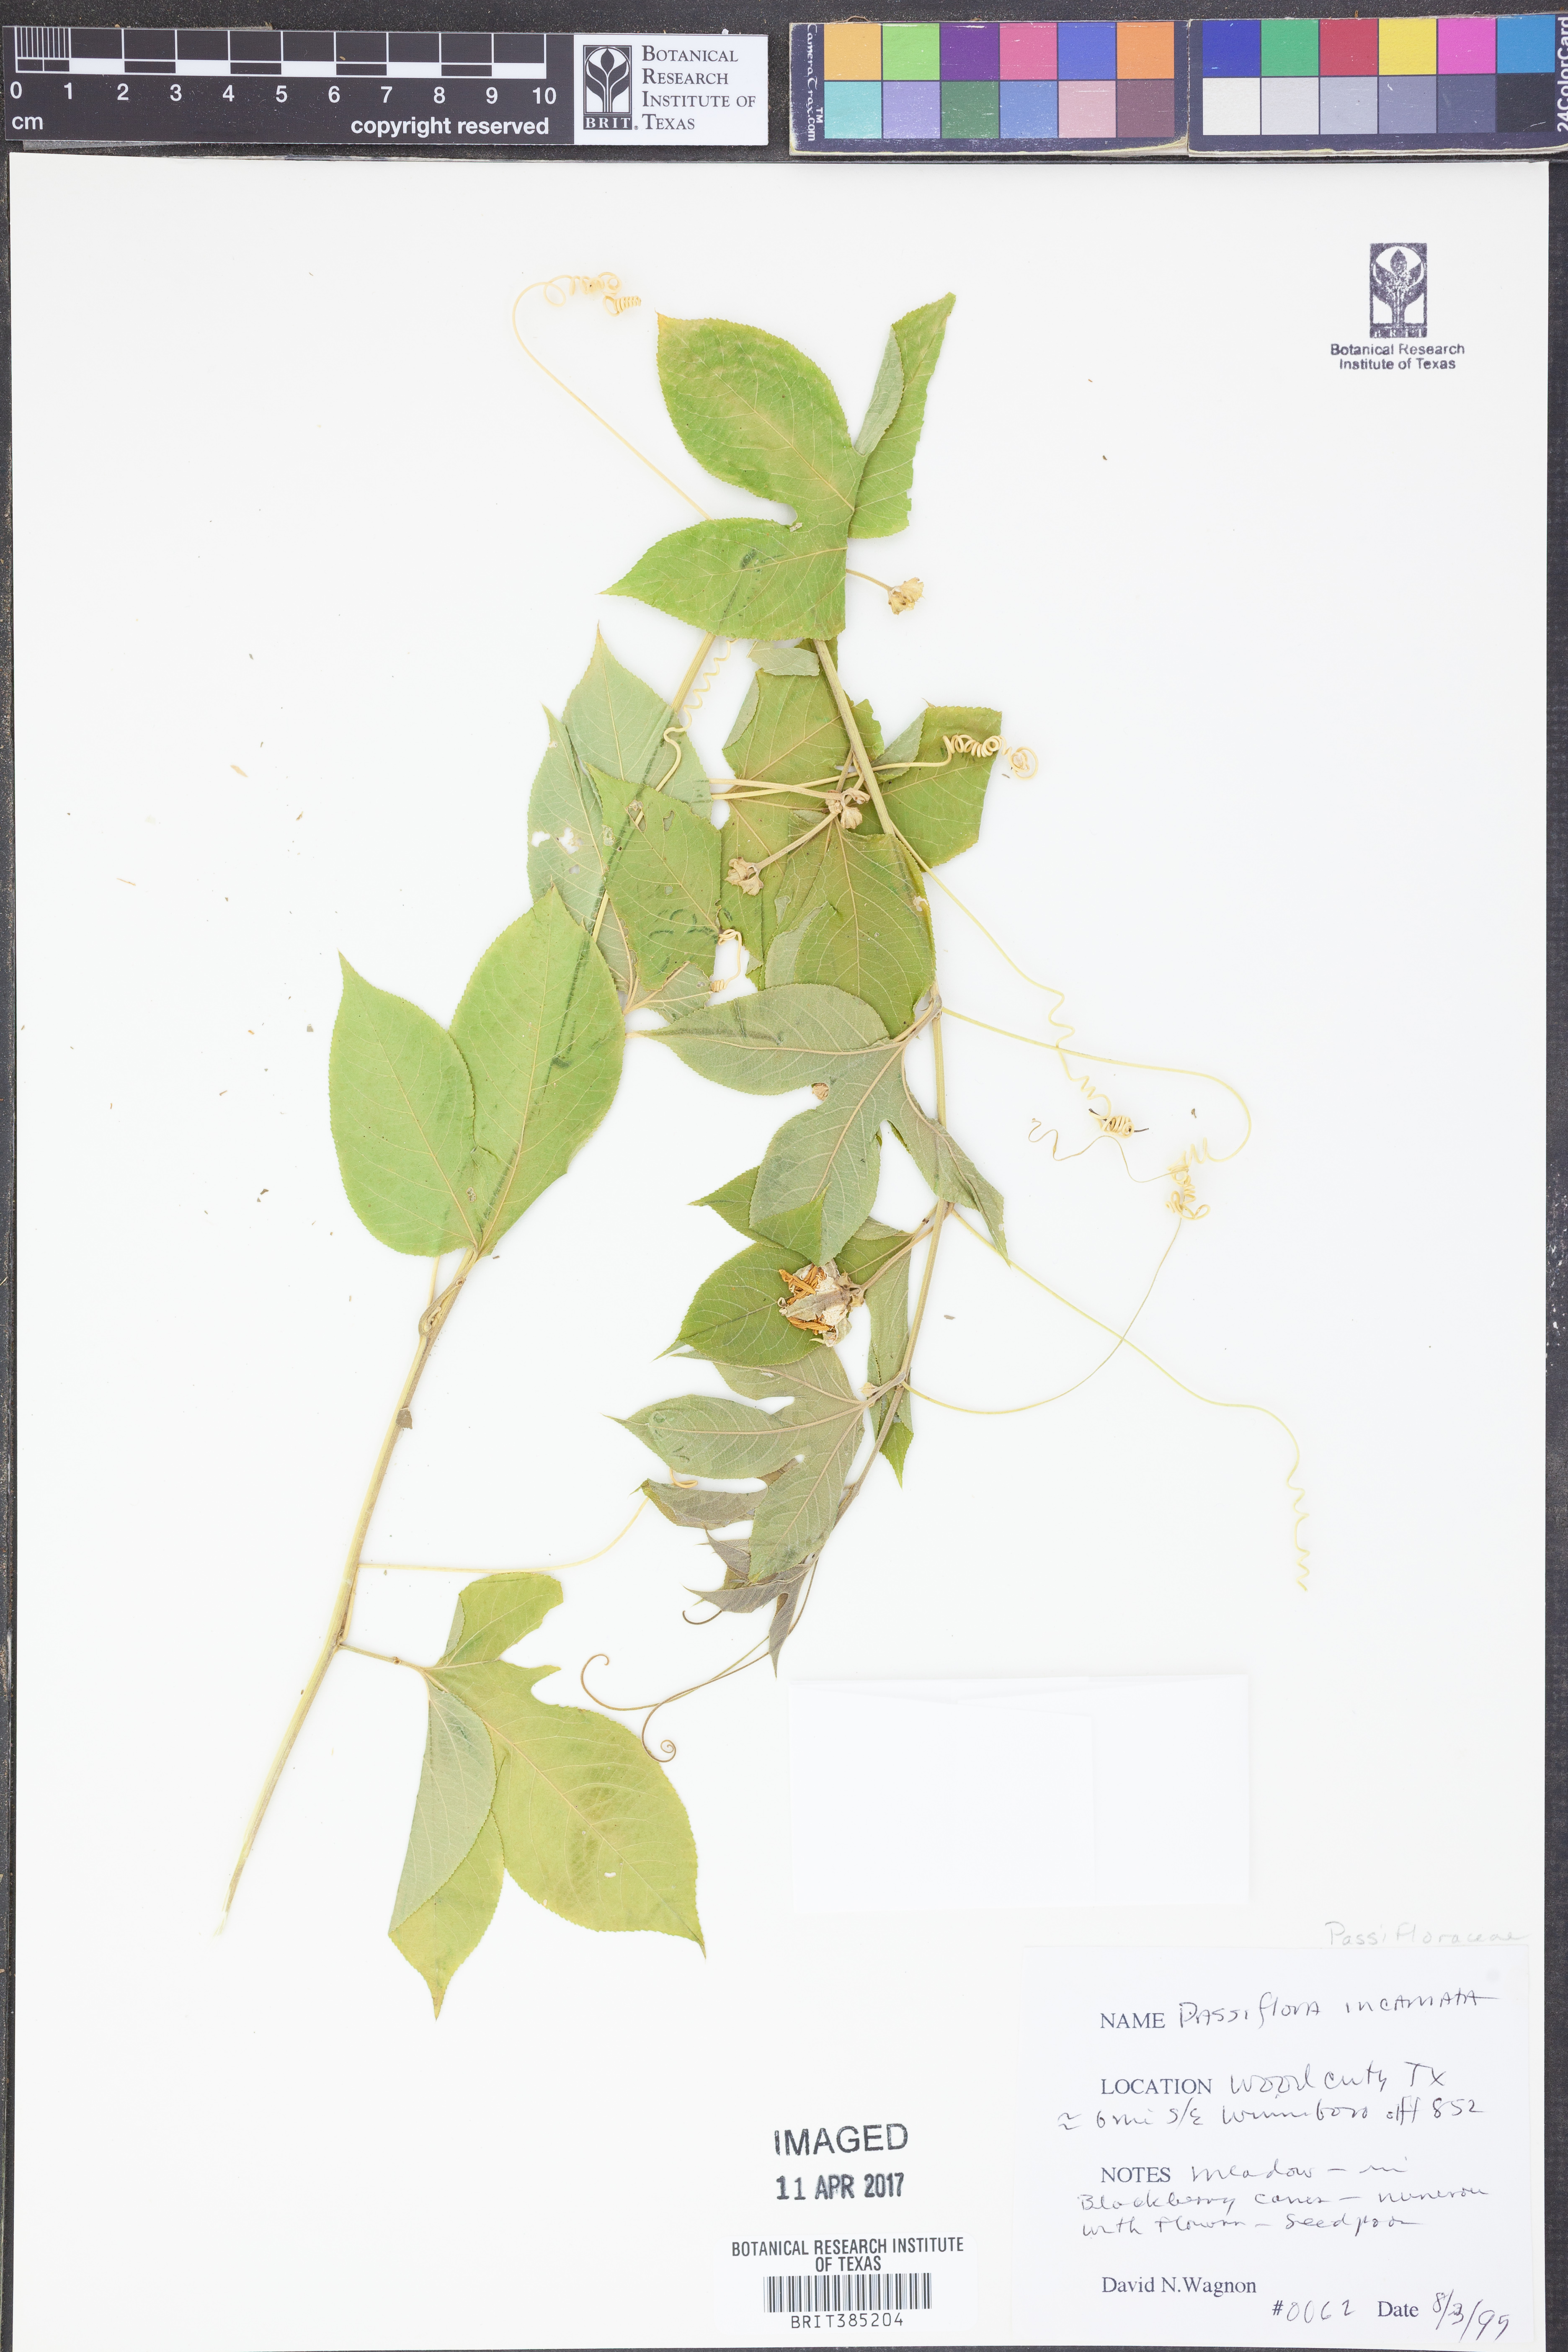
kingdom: Plantae
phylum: Tracheophyta
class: Magnoliopsida
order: Malpighiales
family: Passifloraceae
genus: Passiflora
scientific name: Passiflora incarnata
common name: Apricot-vine
